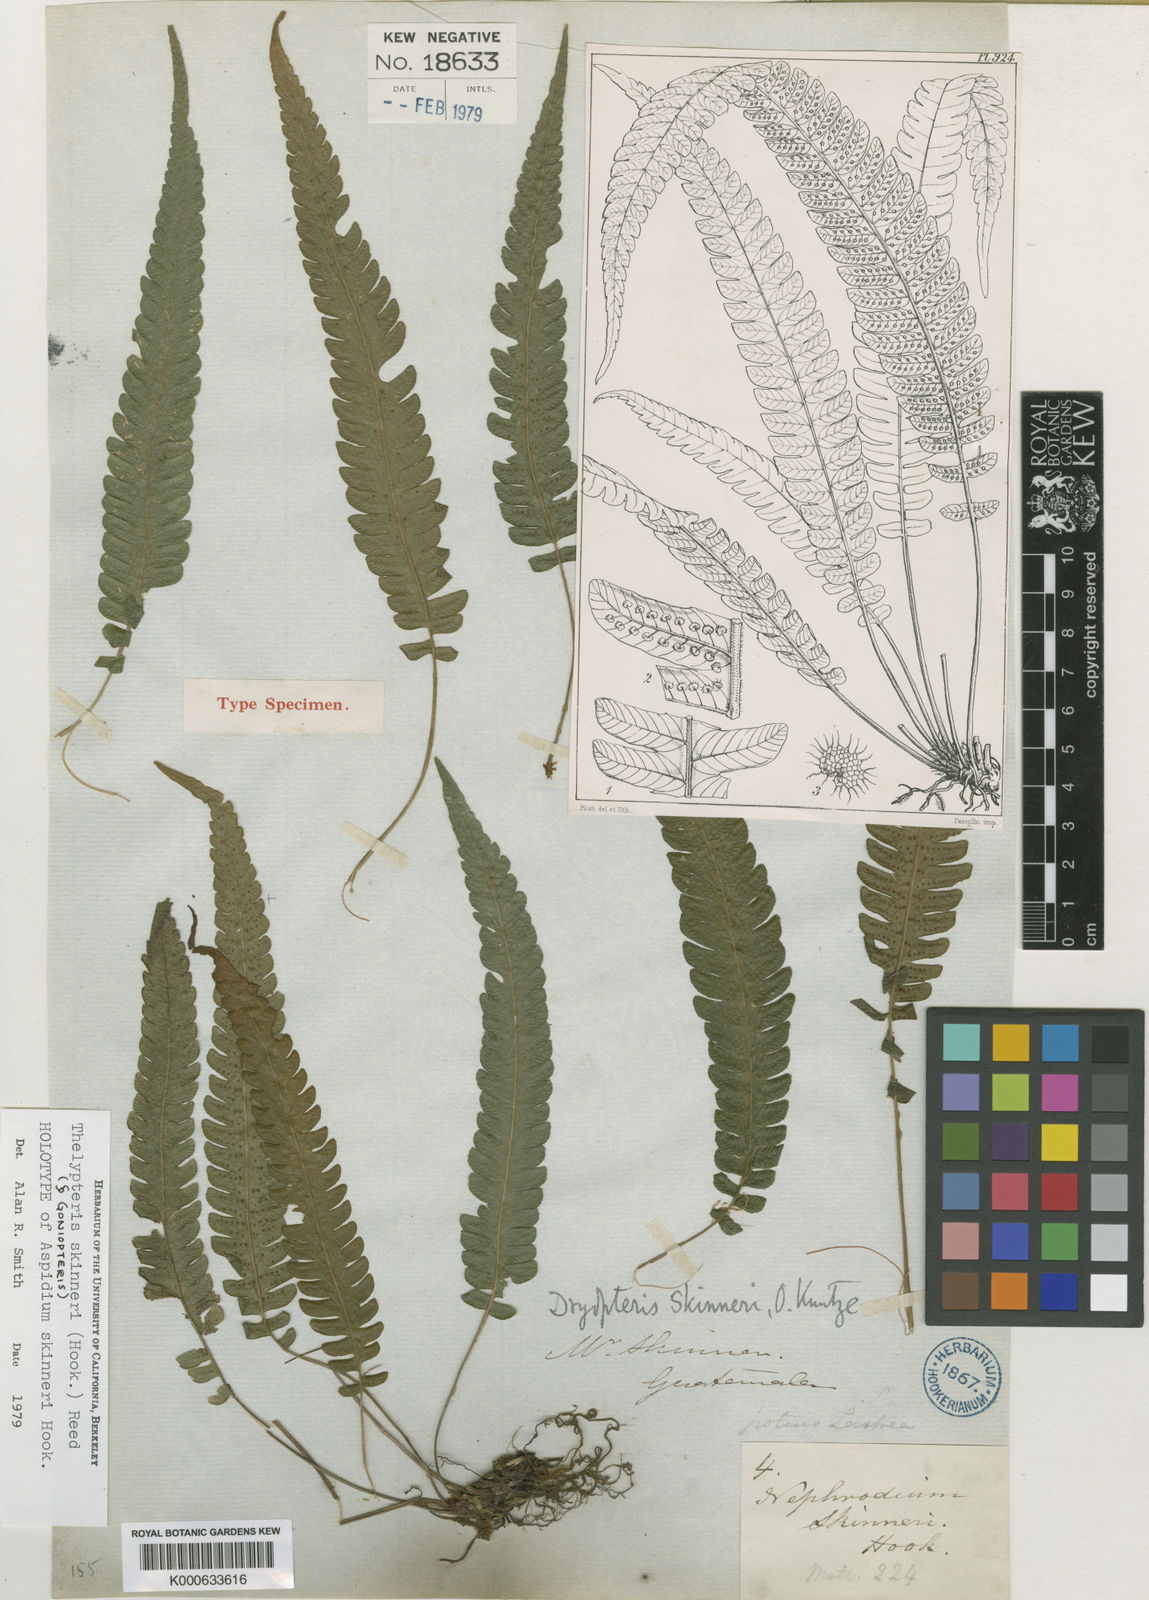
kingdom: Plantae
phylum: Tracheophyta
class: Polypodiopsida
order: Polypodiales
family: Thelypteridaceae
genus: Goniopteris
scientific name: Goniopteris skinneri
